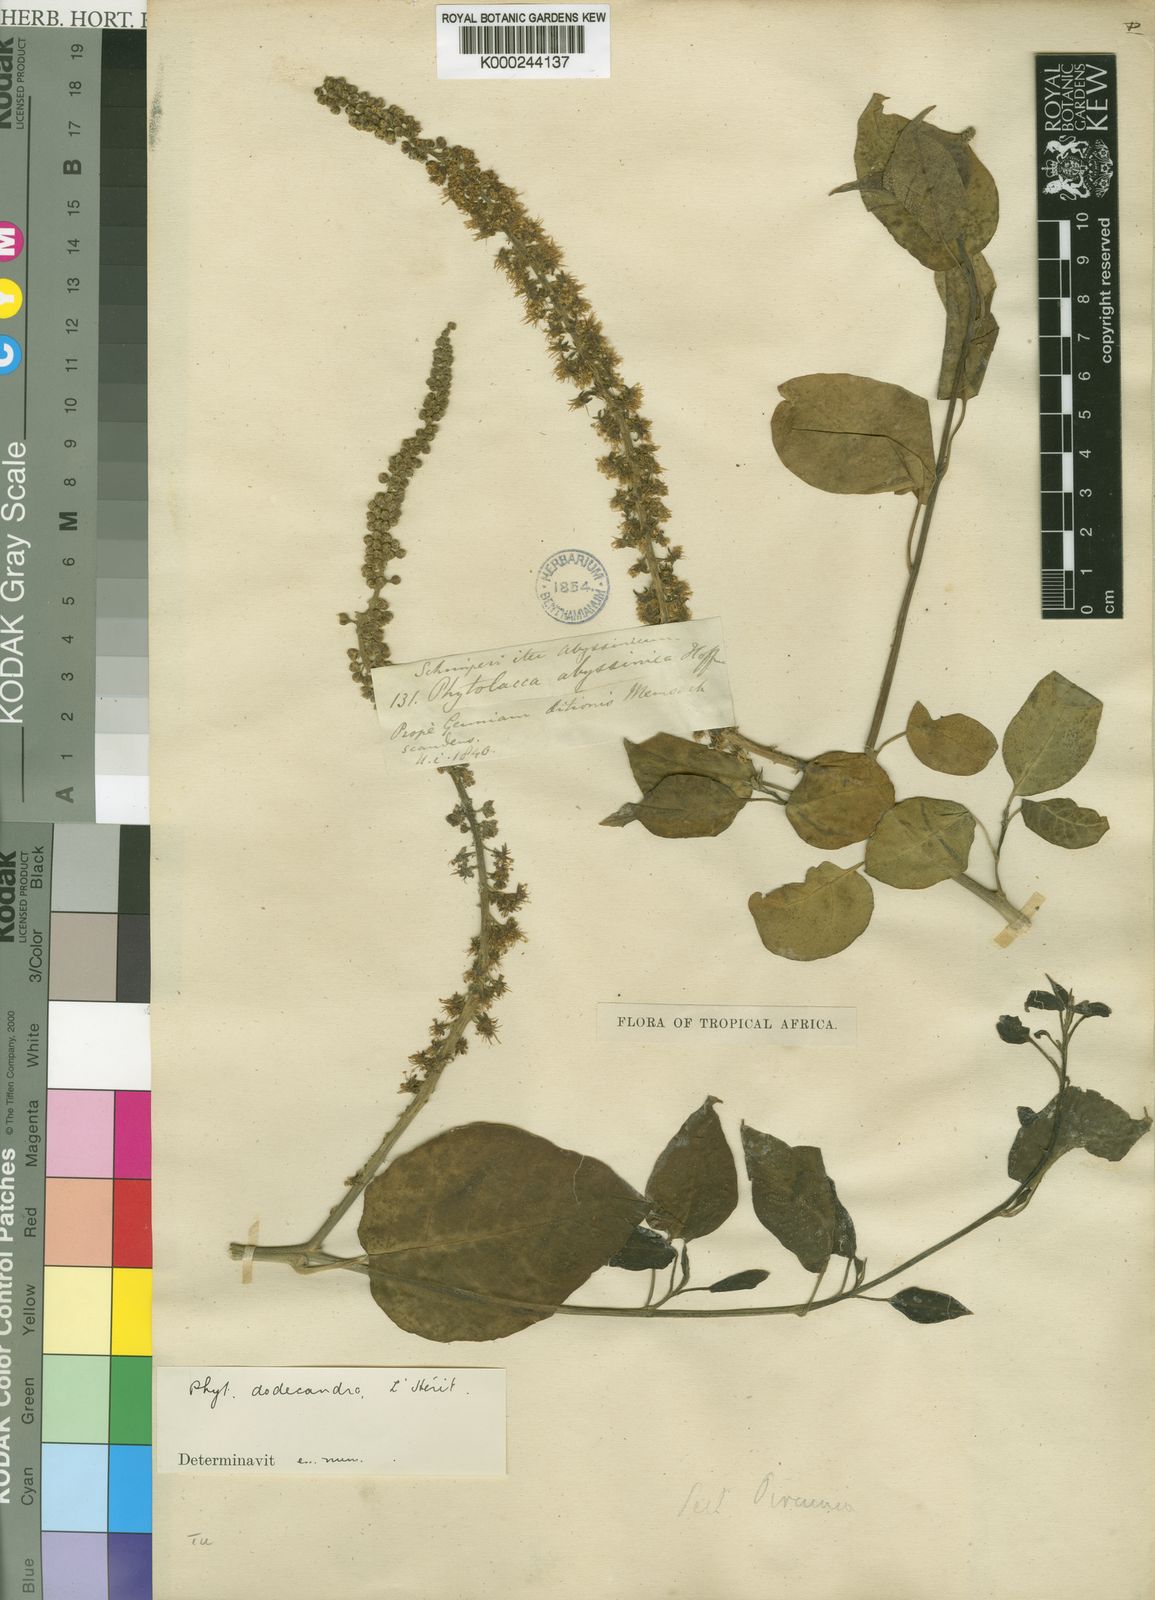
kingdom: Plantae
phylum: Tracheophyta
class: Magnoliopsida
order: Caryophyllales
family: Phytolaccaceae
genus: Phytolacca
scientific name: Phytolacca
